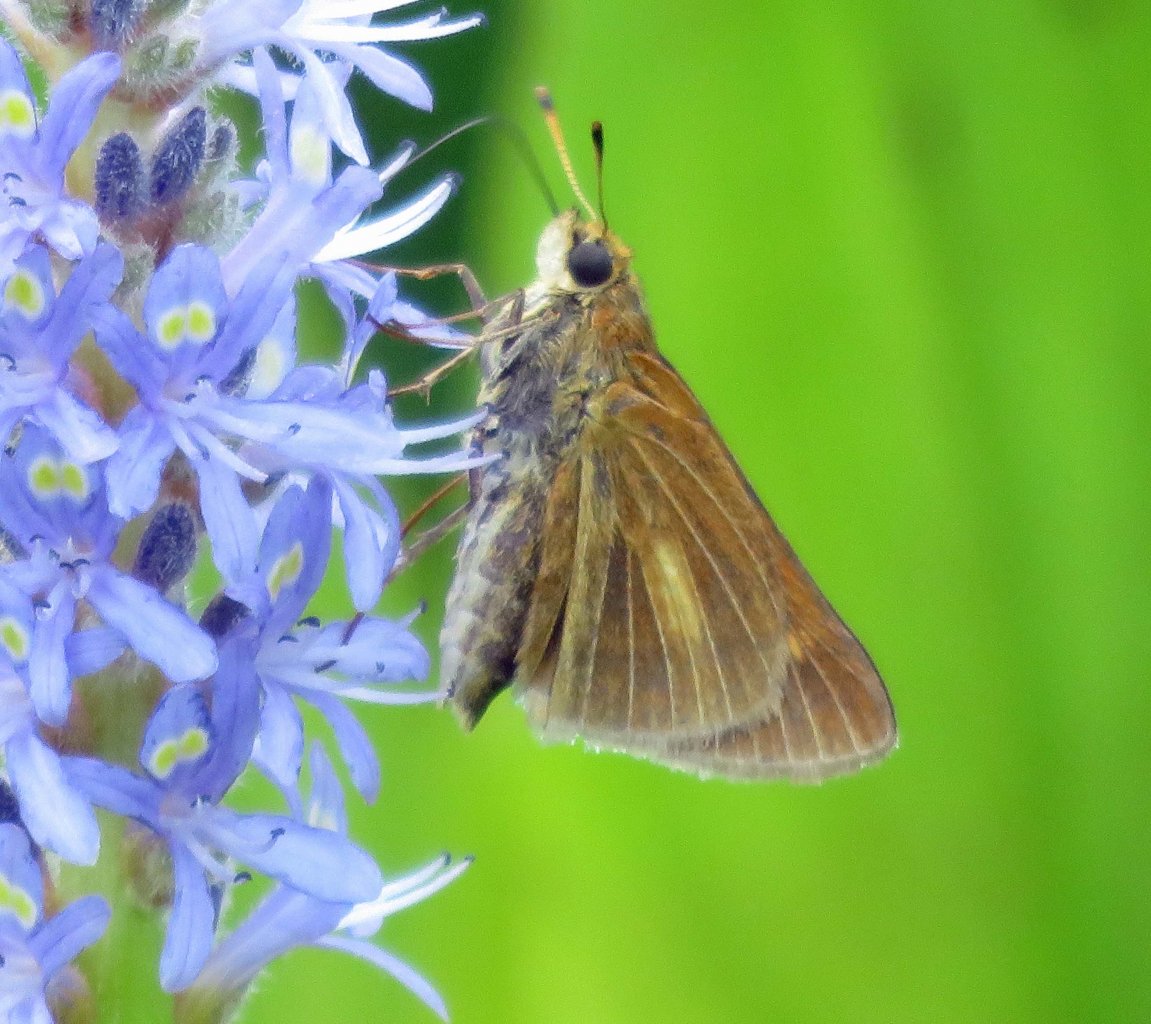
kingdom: Animalia
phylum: Arthropoda
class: Insecta
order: Lepidoptera
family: Hesperiidae
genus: Euphyes
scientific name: Euphyes dion
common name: Dion Skipper
